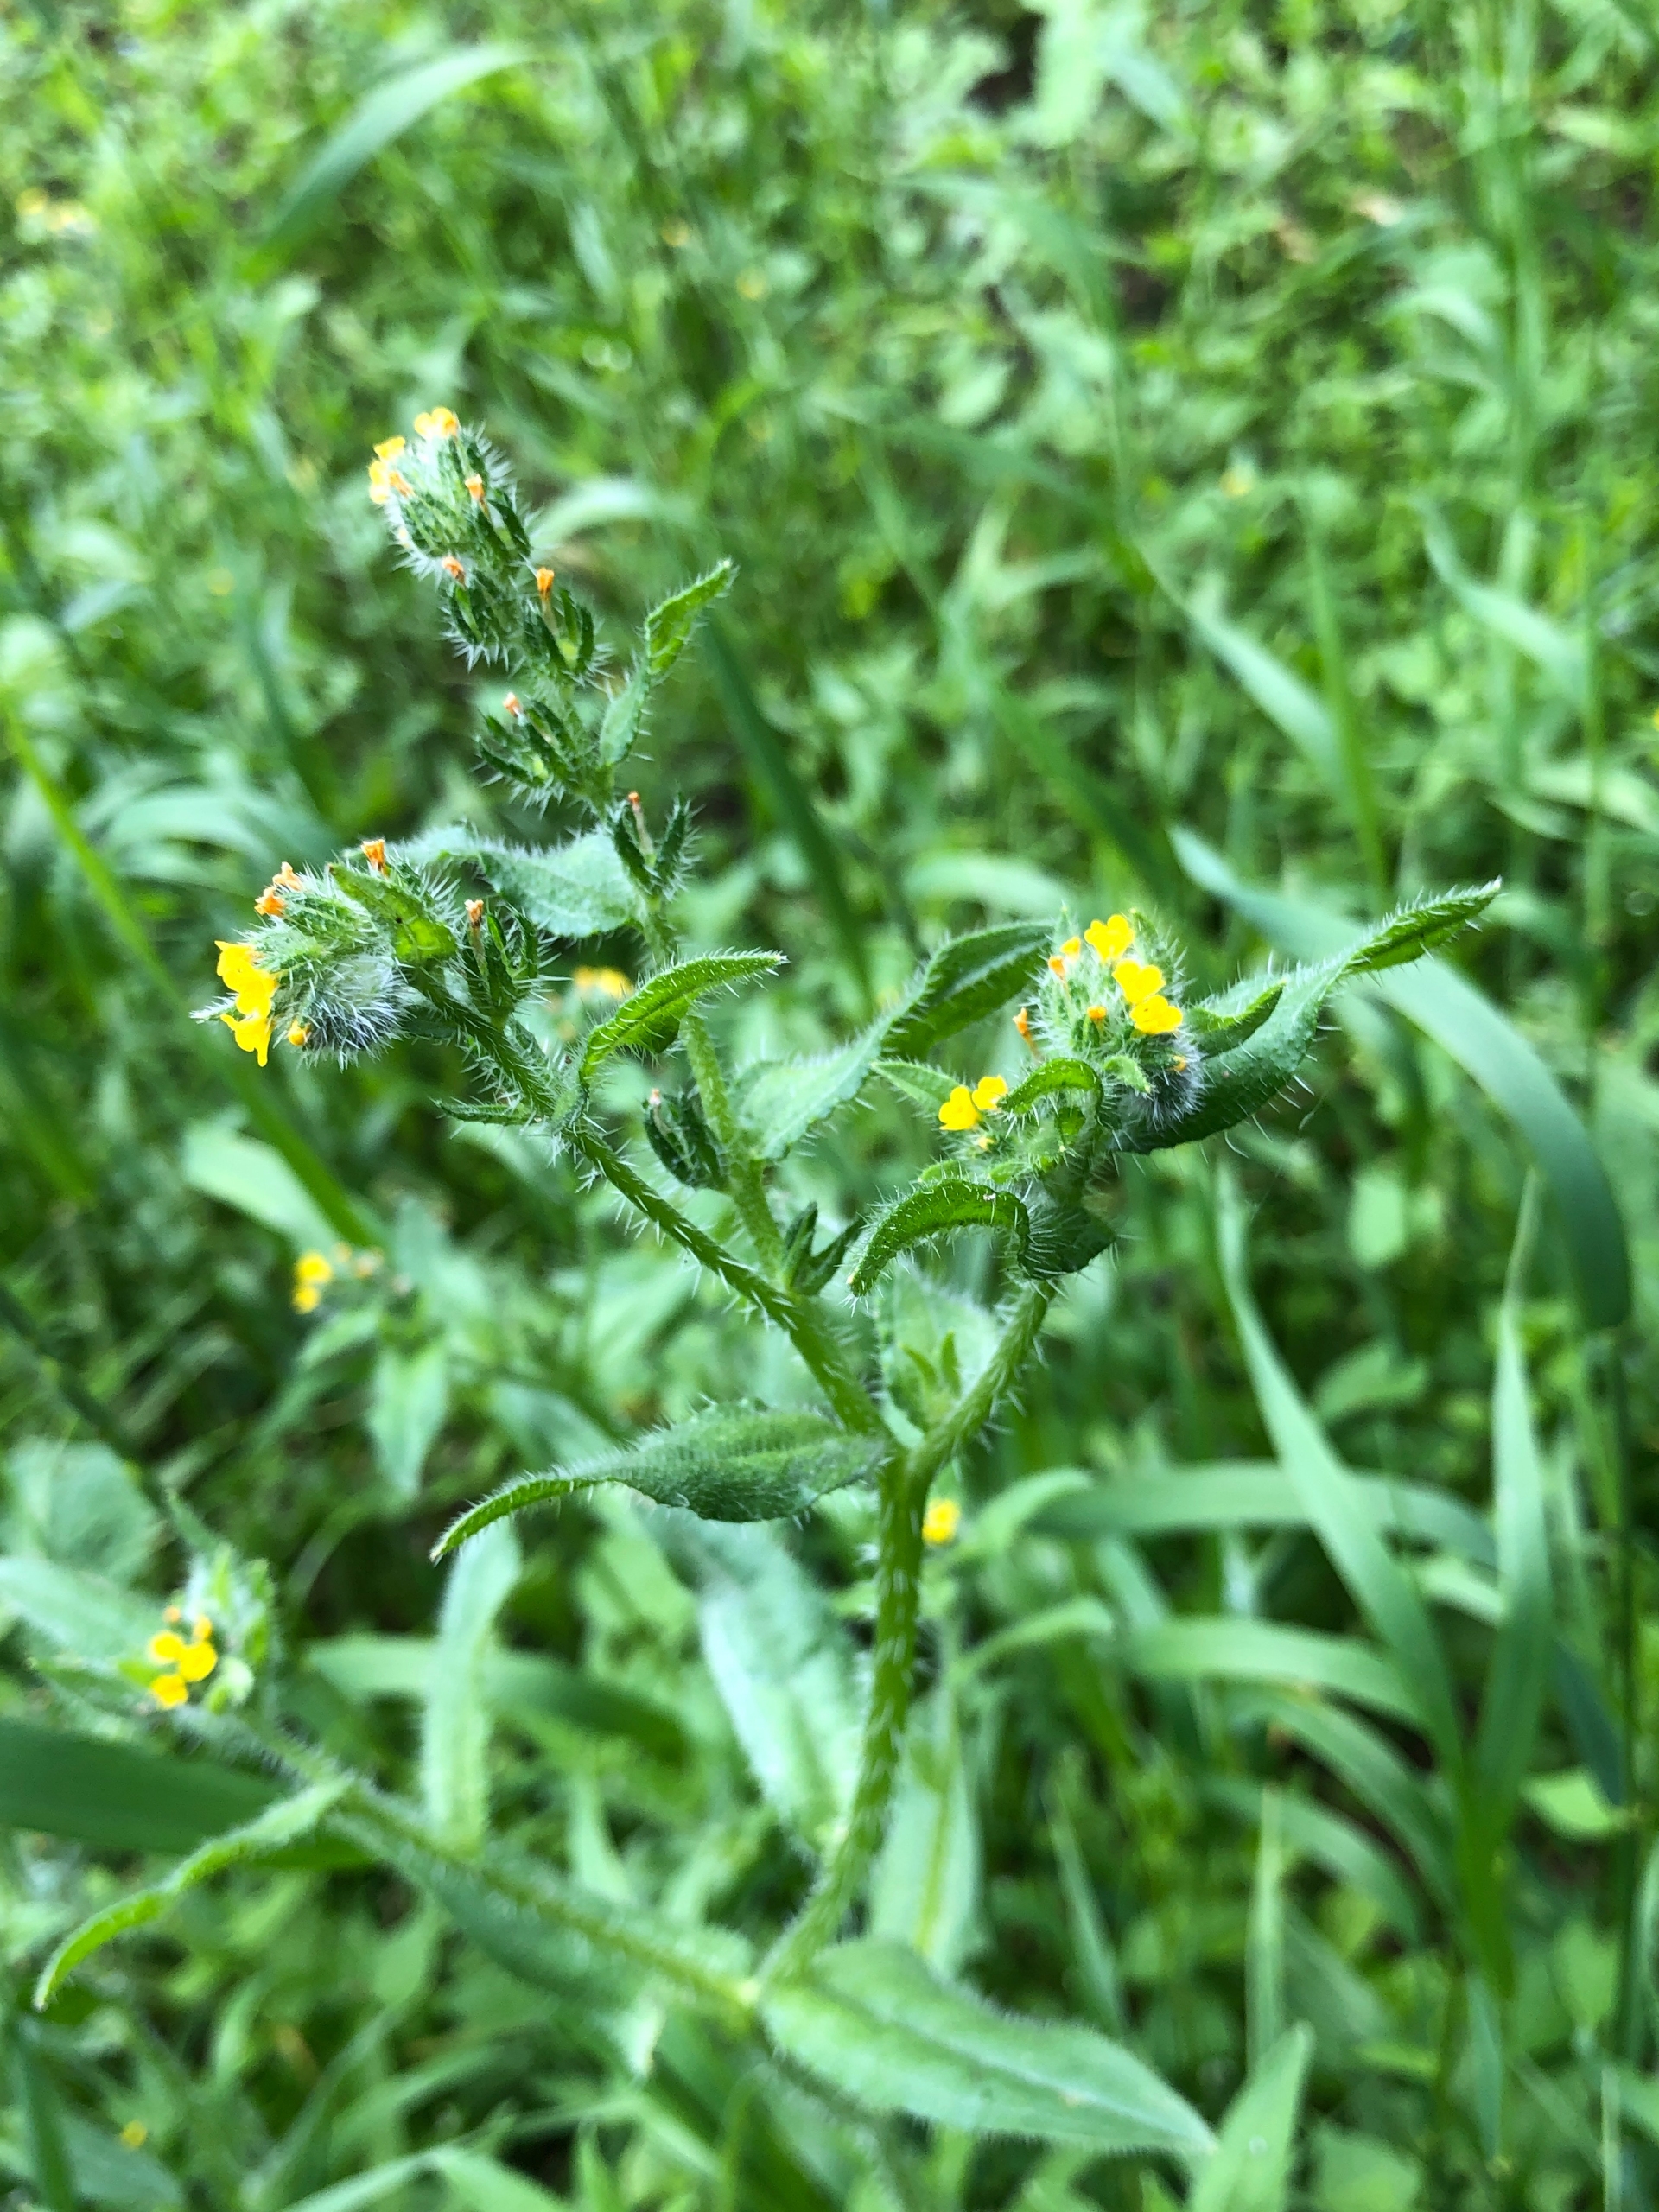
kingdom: Plantae
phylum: Tracheophyta
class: Magnoliopsida
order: Boraginales
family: Boraginaceae
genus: Amsinckia
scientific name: Amsinckia menziesii
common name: Småblomstret gulurt
